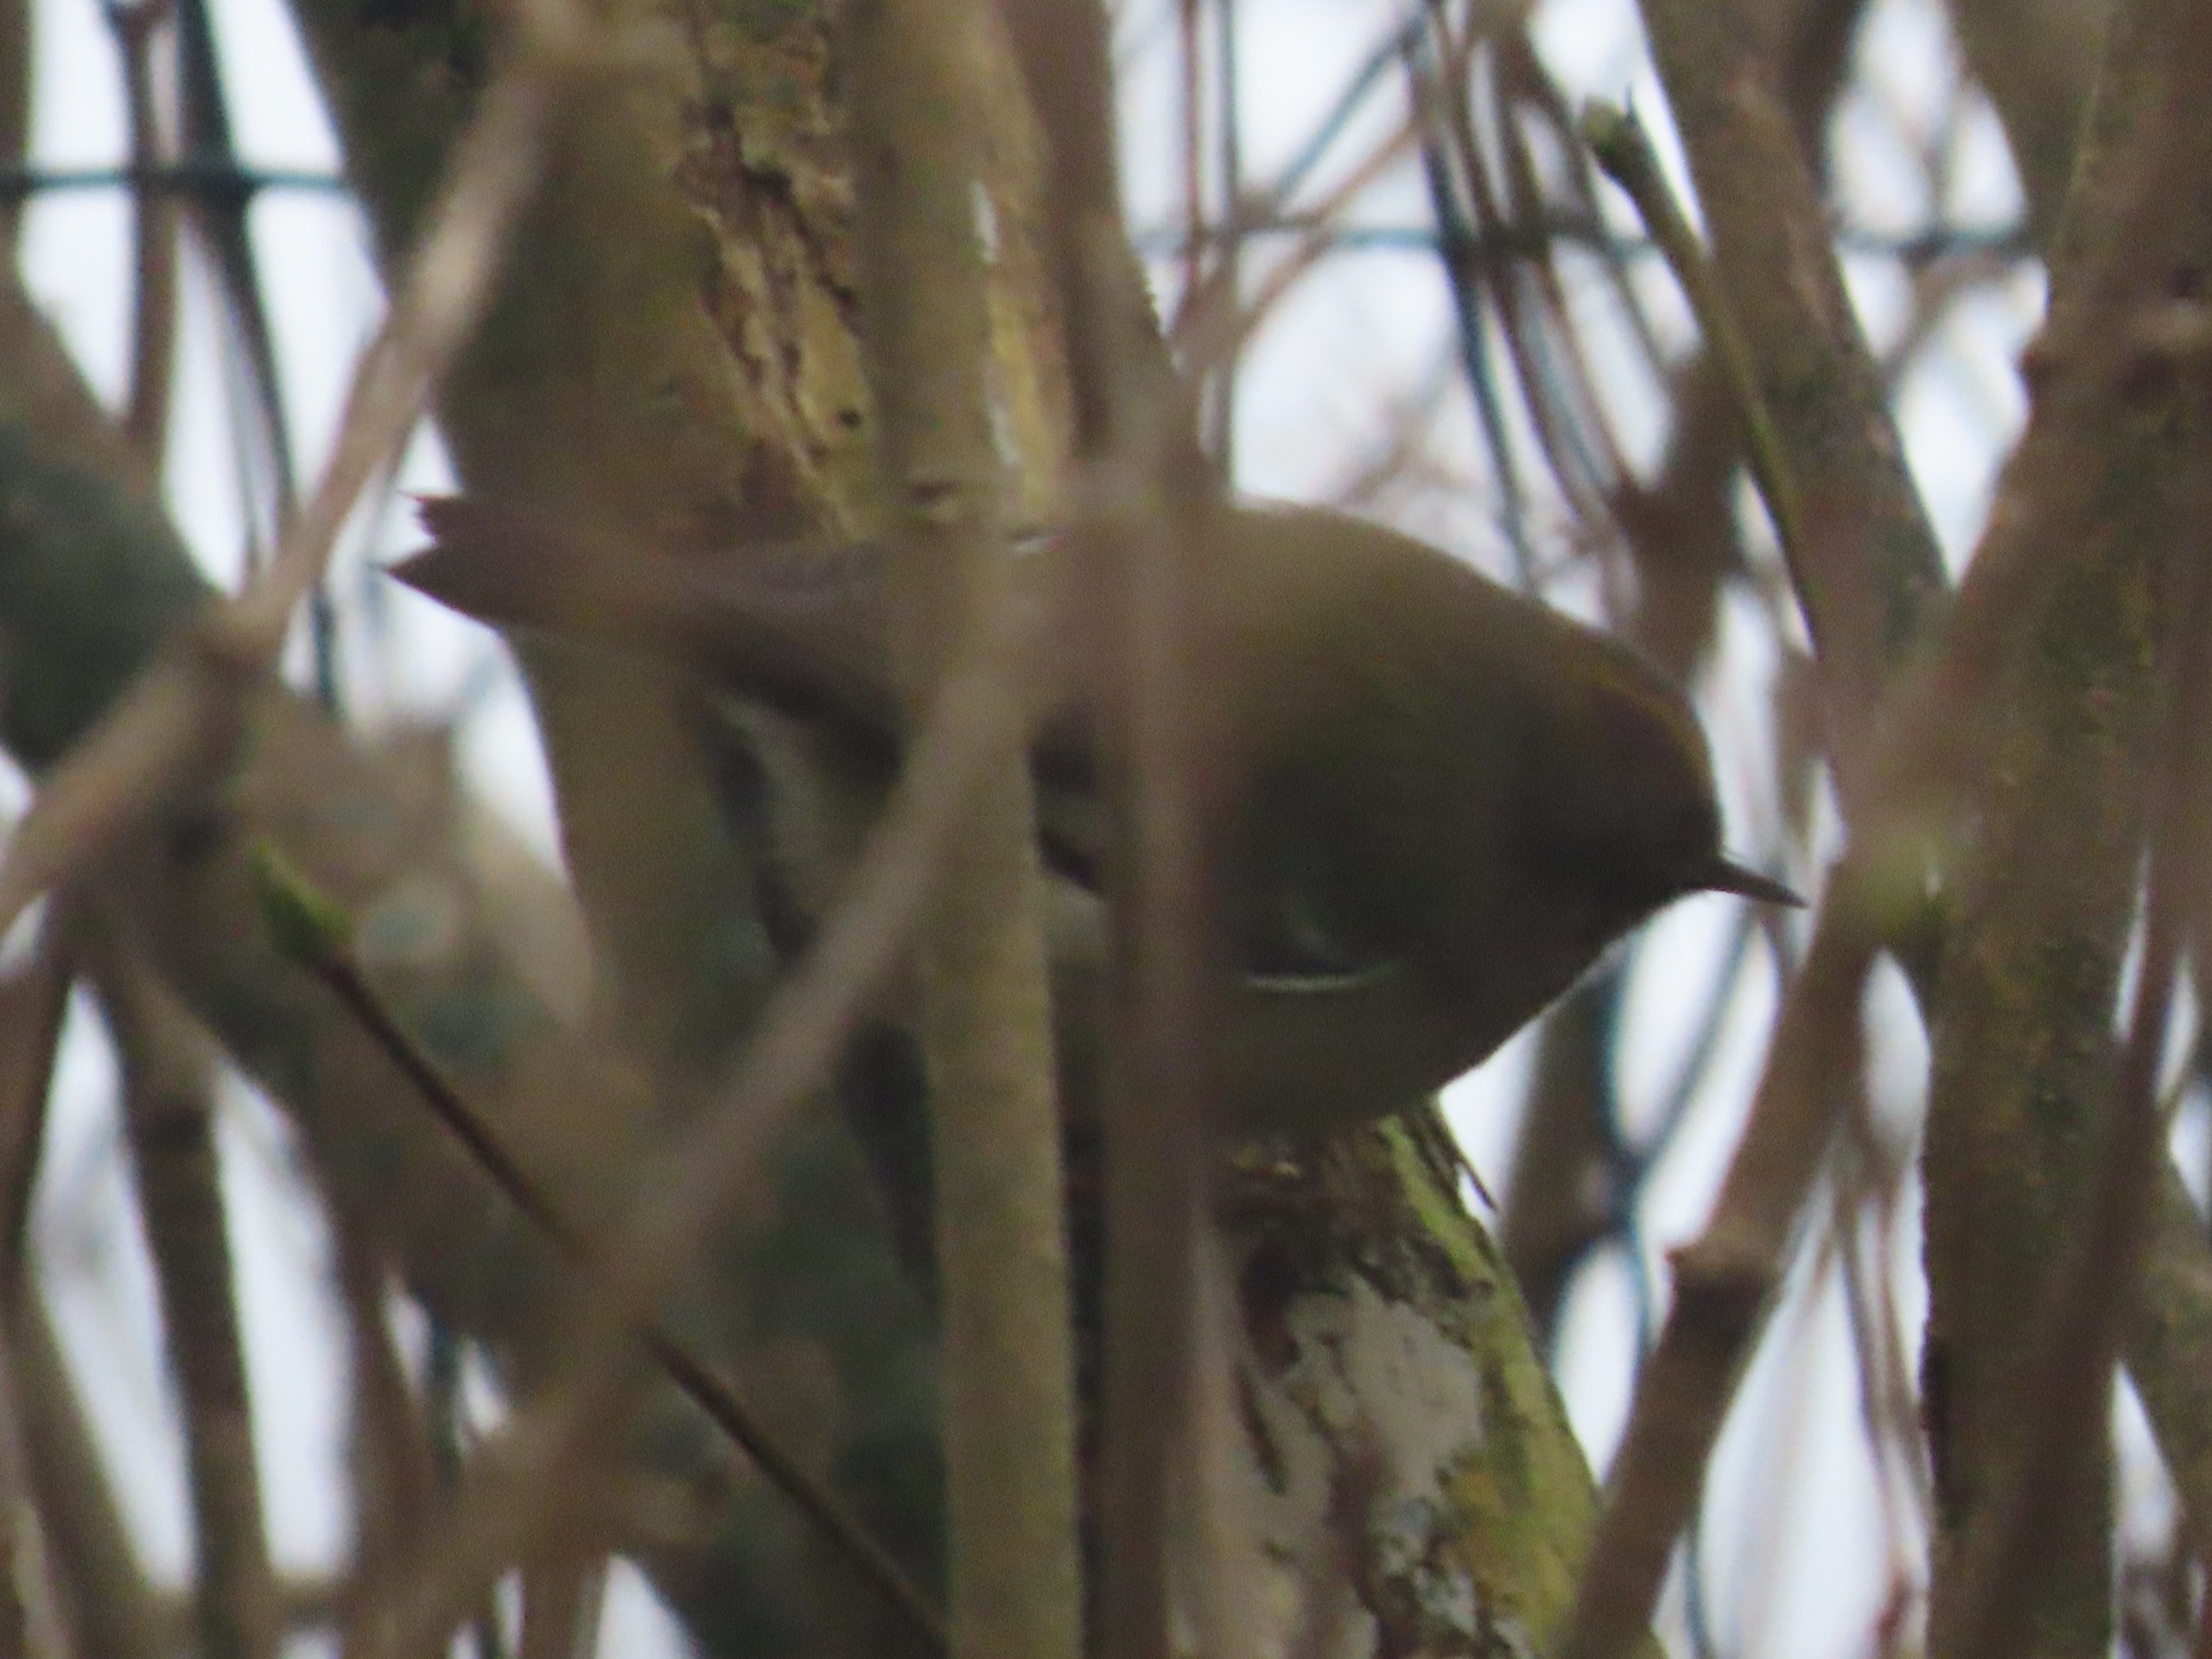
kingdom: Animalia
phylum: Chordata
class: Aves
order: Passeriformes
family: Regulidae
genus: Regulus
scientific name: Regulus regulus
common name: Fuglekonge
